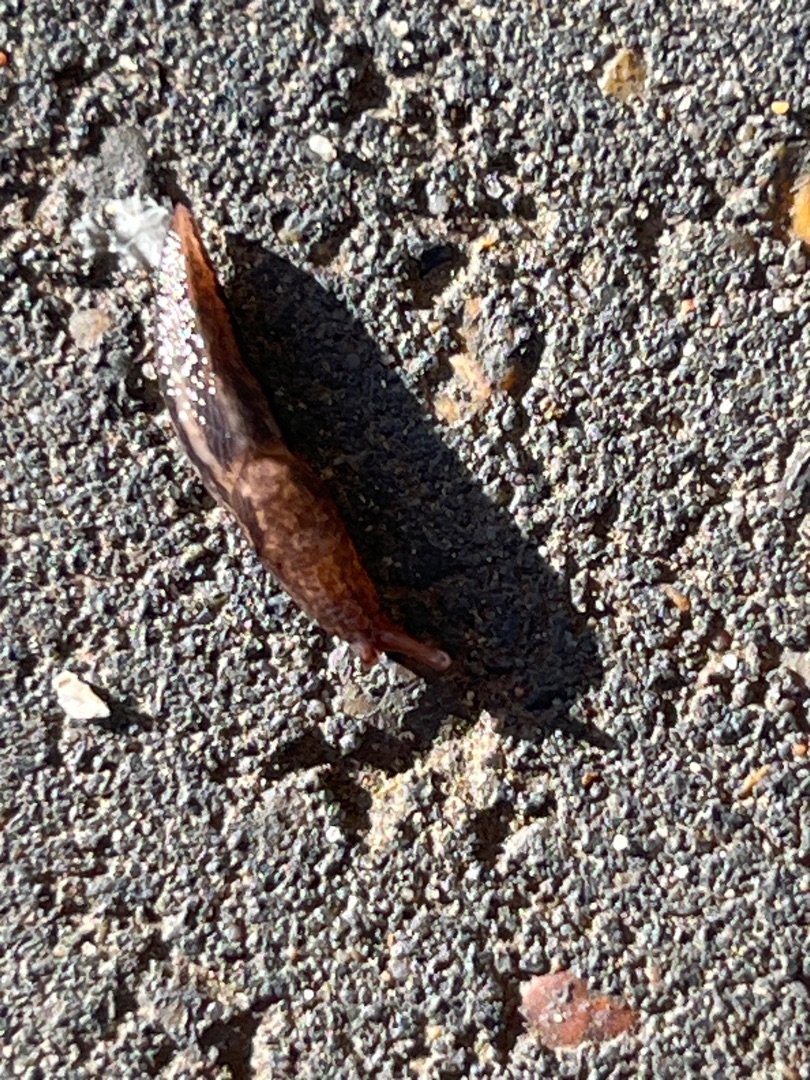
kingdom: Animalia
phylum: Mollusca
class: Gastropoda
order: Stylommatophora
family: Limacidae
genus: Limax
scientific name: Limax maximus
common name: Pantersnegl
